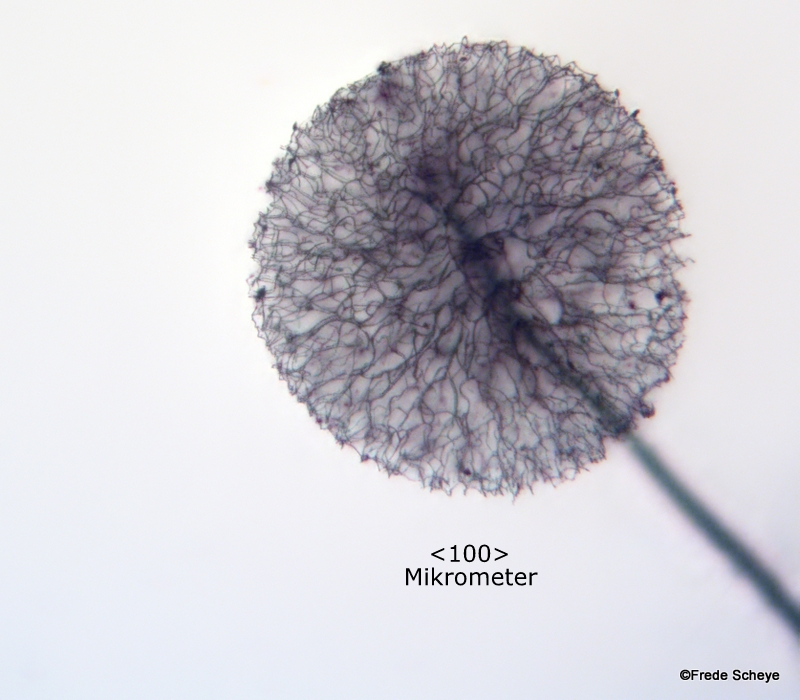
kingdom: Protozoa
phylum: Mycetozoa
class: Myxomycetes
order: Stemonitidales
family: Stemonitidaceae
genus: Comatricha
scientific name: Comatricha nigra
